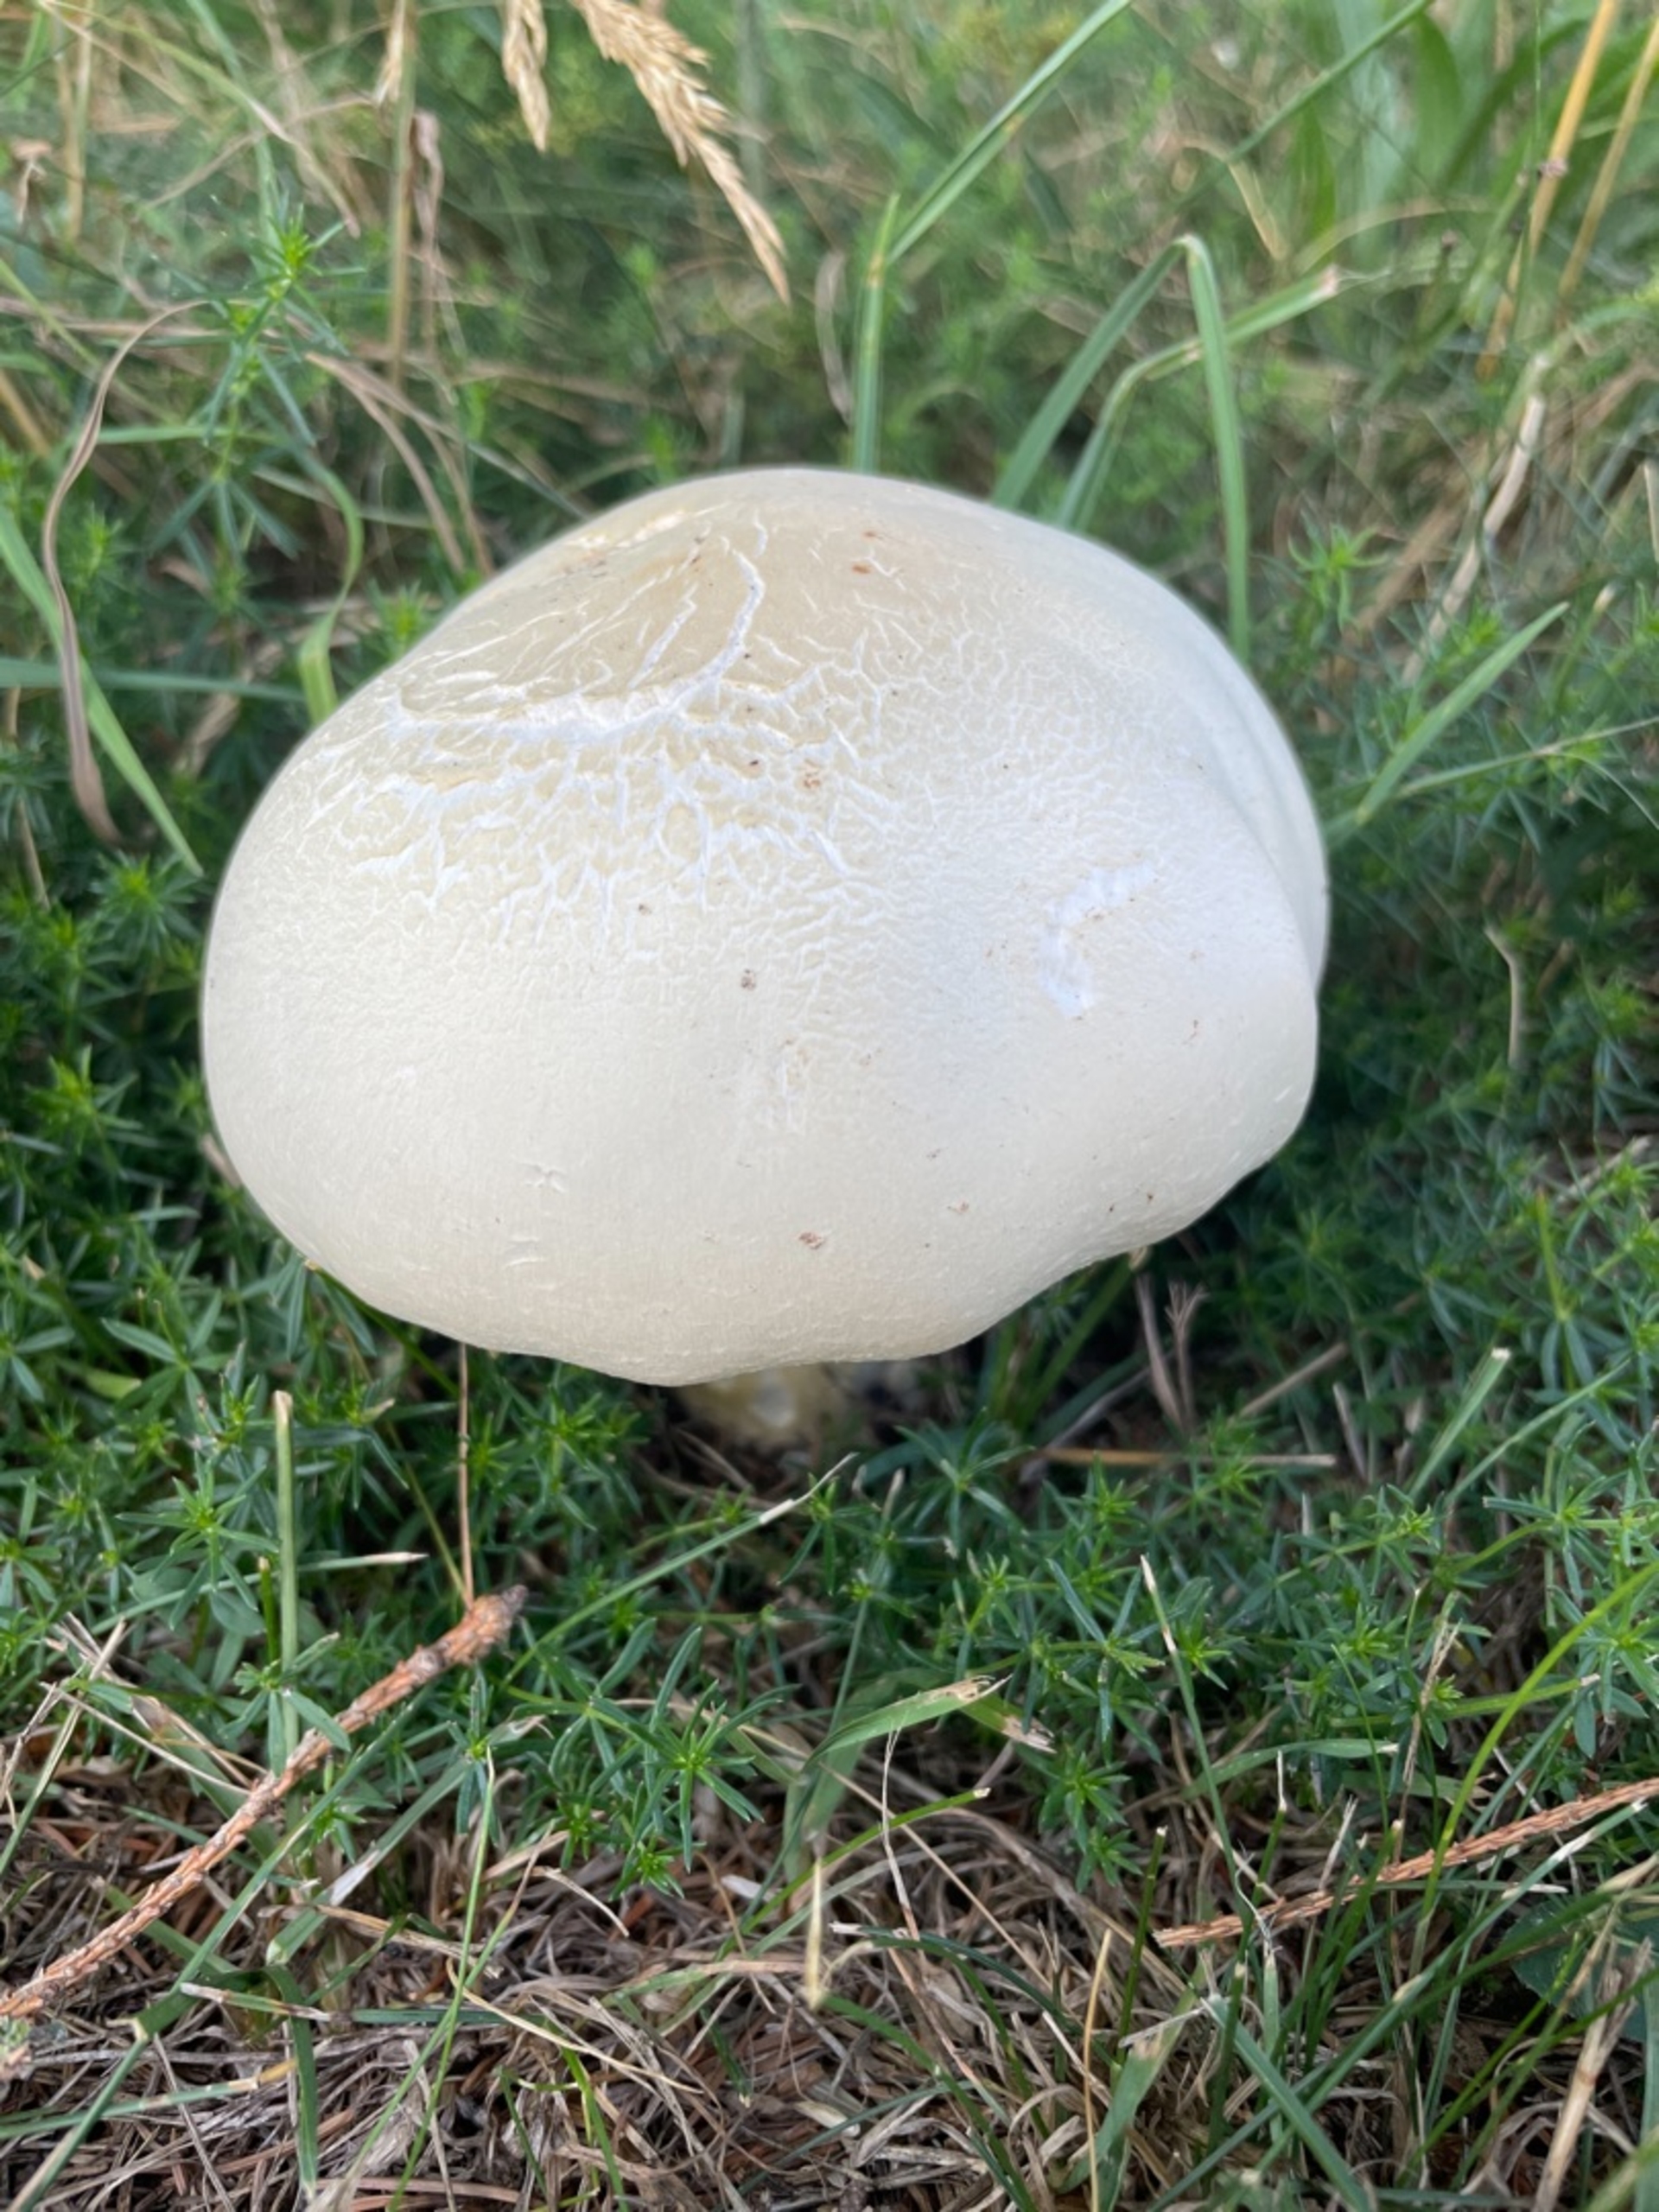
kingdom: Fungi
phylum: Basidiomycota
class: Agaricomycetes
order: Agaricales
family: Agaricaceae
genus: Agaricus
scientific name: Agaricus
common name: Champignon
